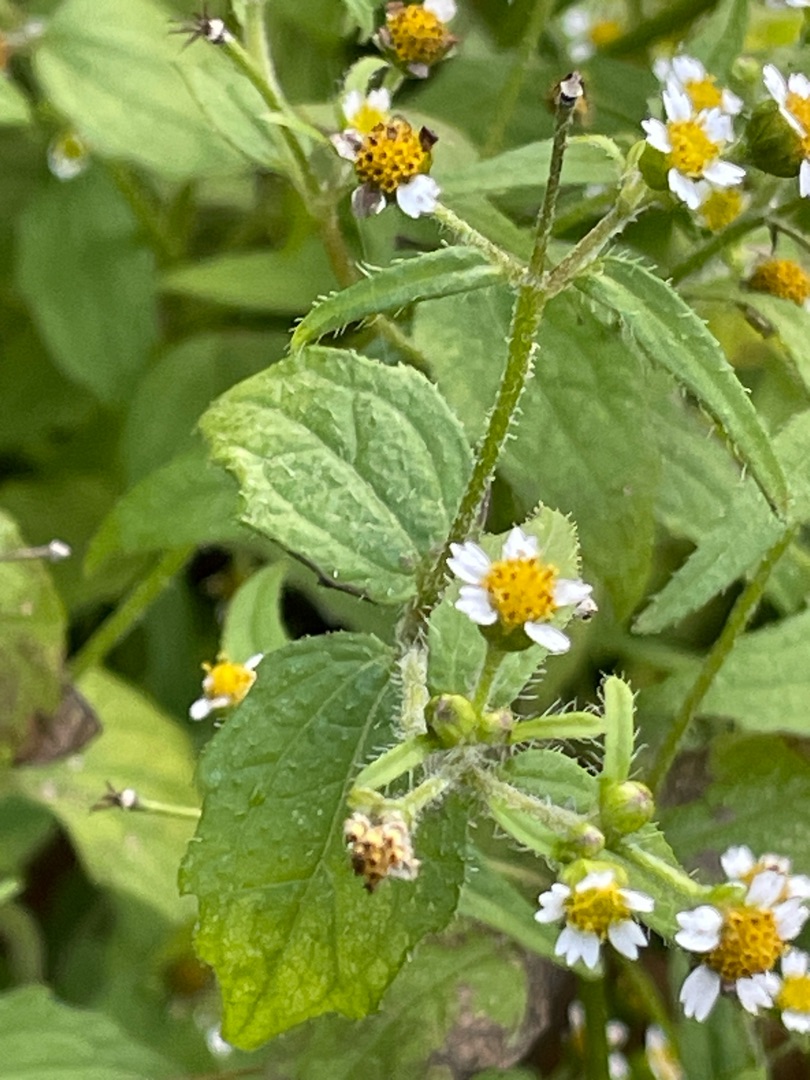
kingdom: Plantae
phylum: Tracheophyta
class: Magnoliopsida
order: Asterales
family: Asteraceae
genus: Galinsoga
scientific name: Galinsoga quadriradiata
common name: Kirtel-kortstråle
